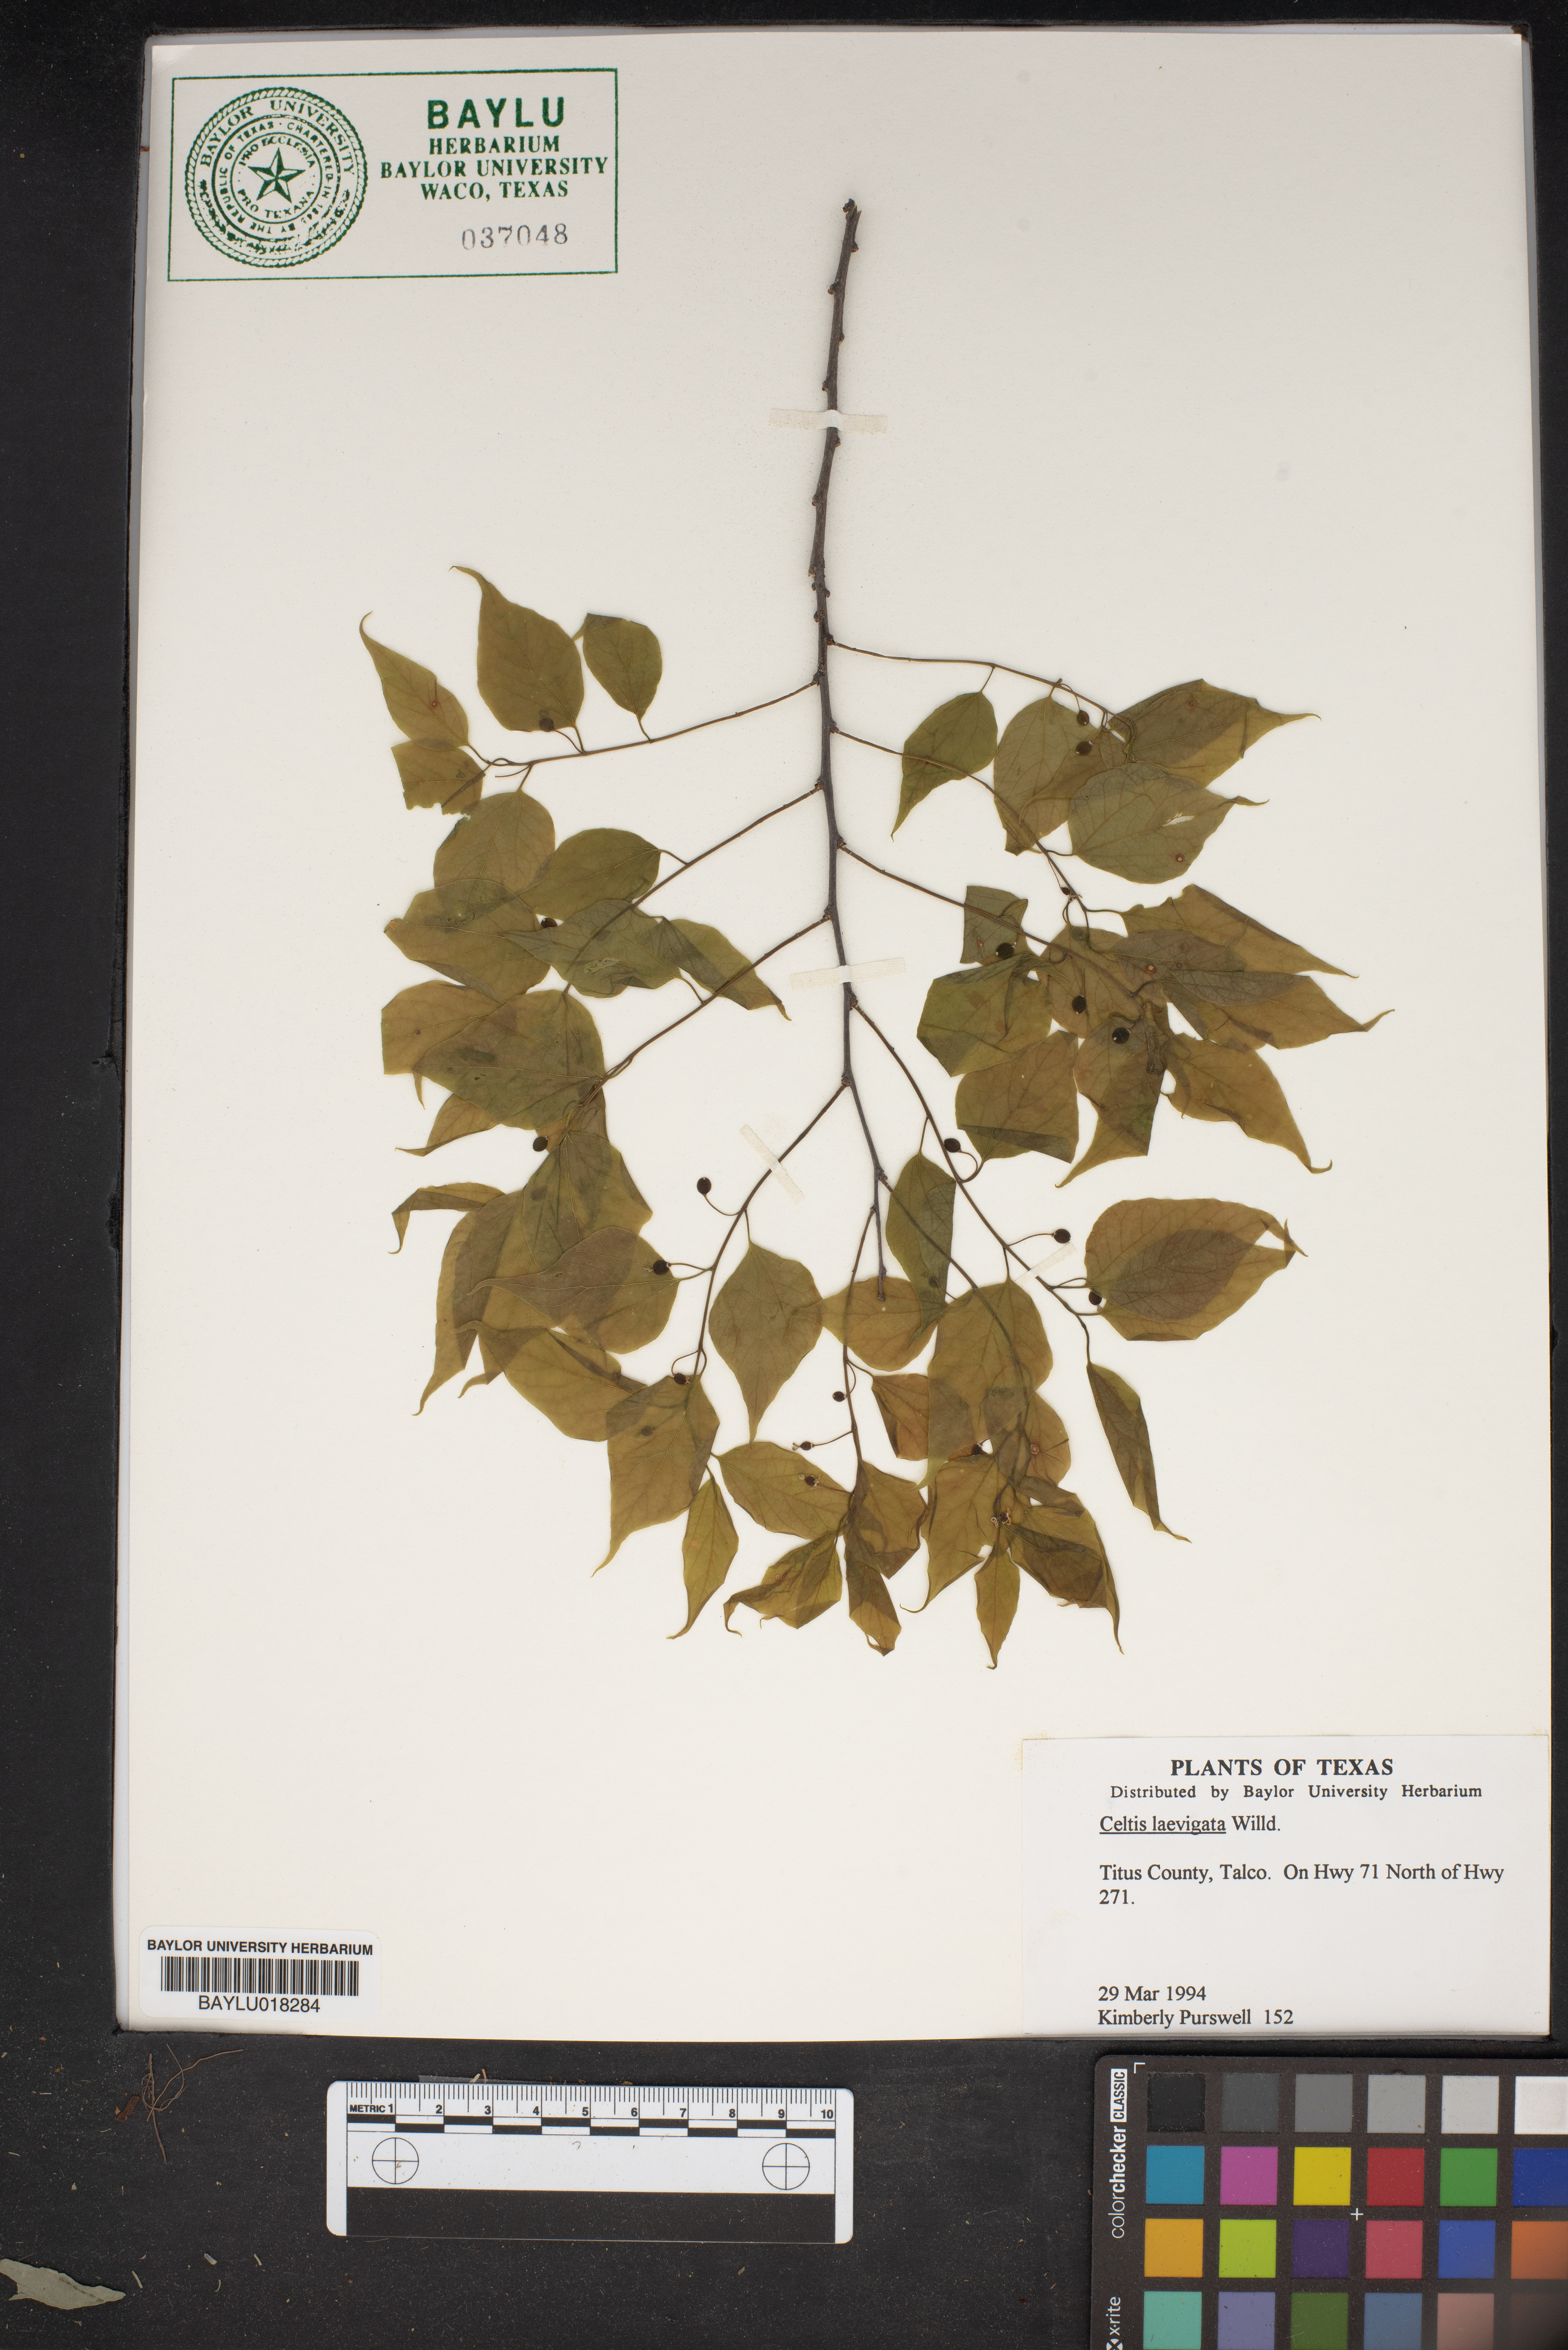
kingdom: Plantae
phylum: Tracheophyta
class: Magnoliopsida
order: Rosales
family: Cannabaceae
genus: Celtis
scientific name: Celtis laevigata
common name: Sugarberry
